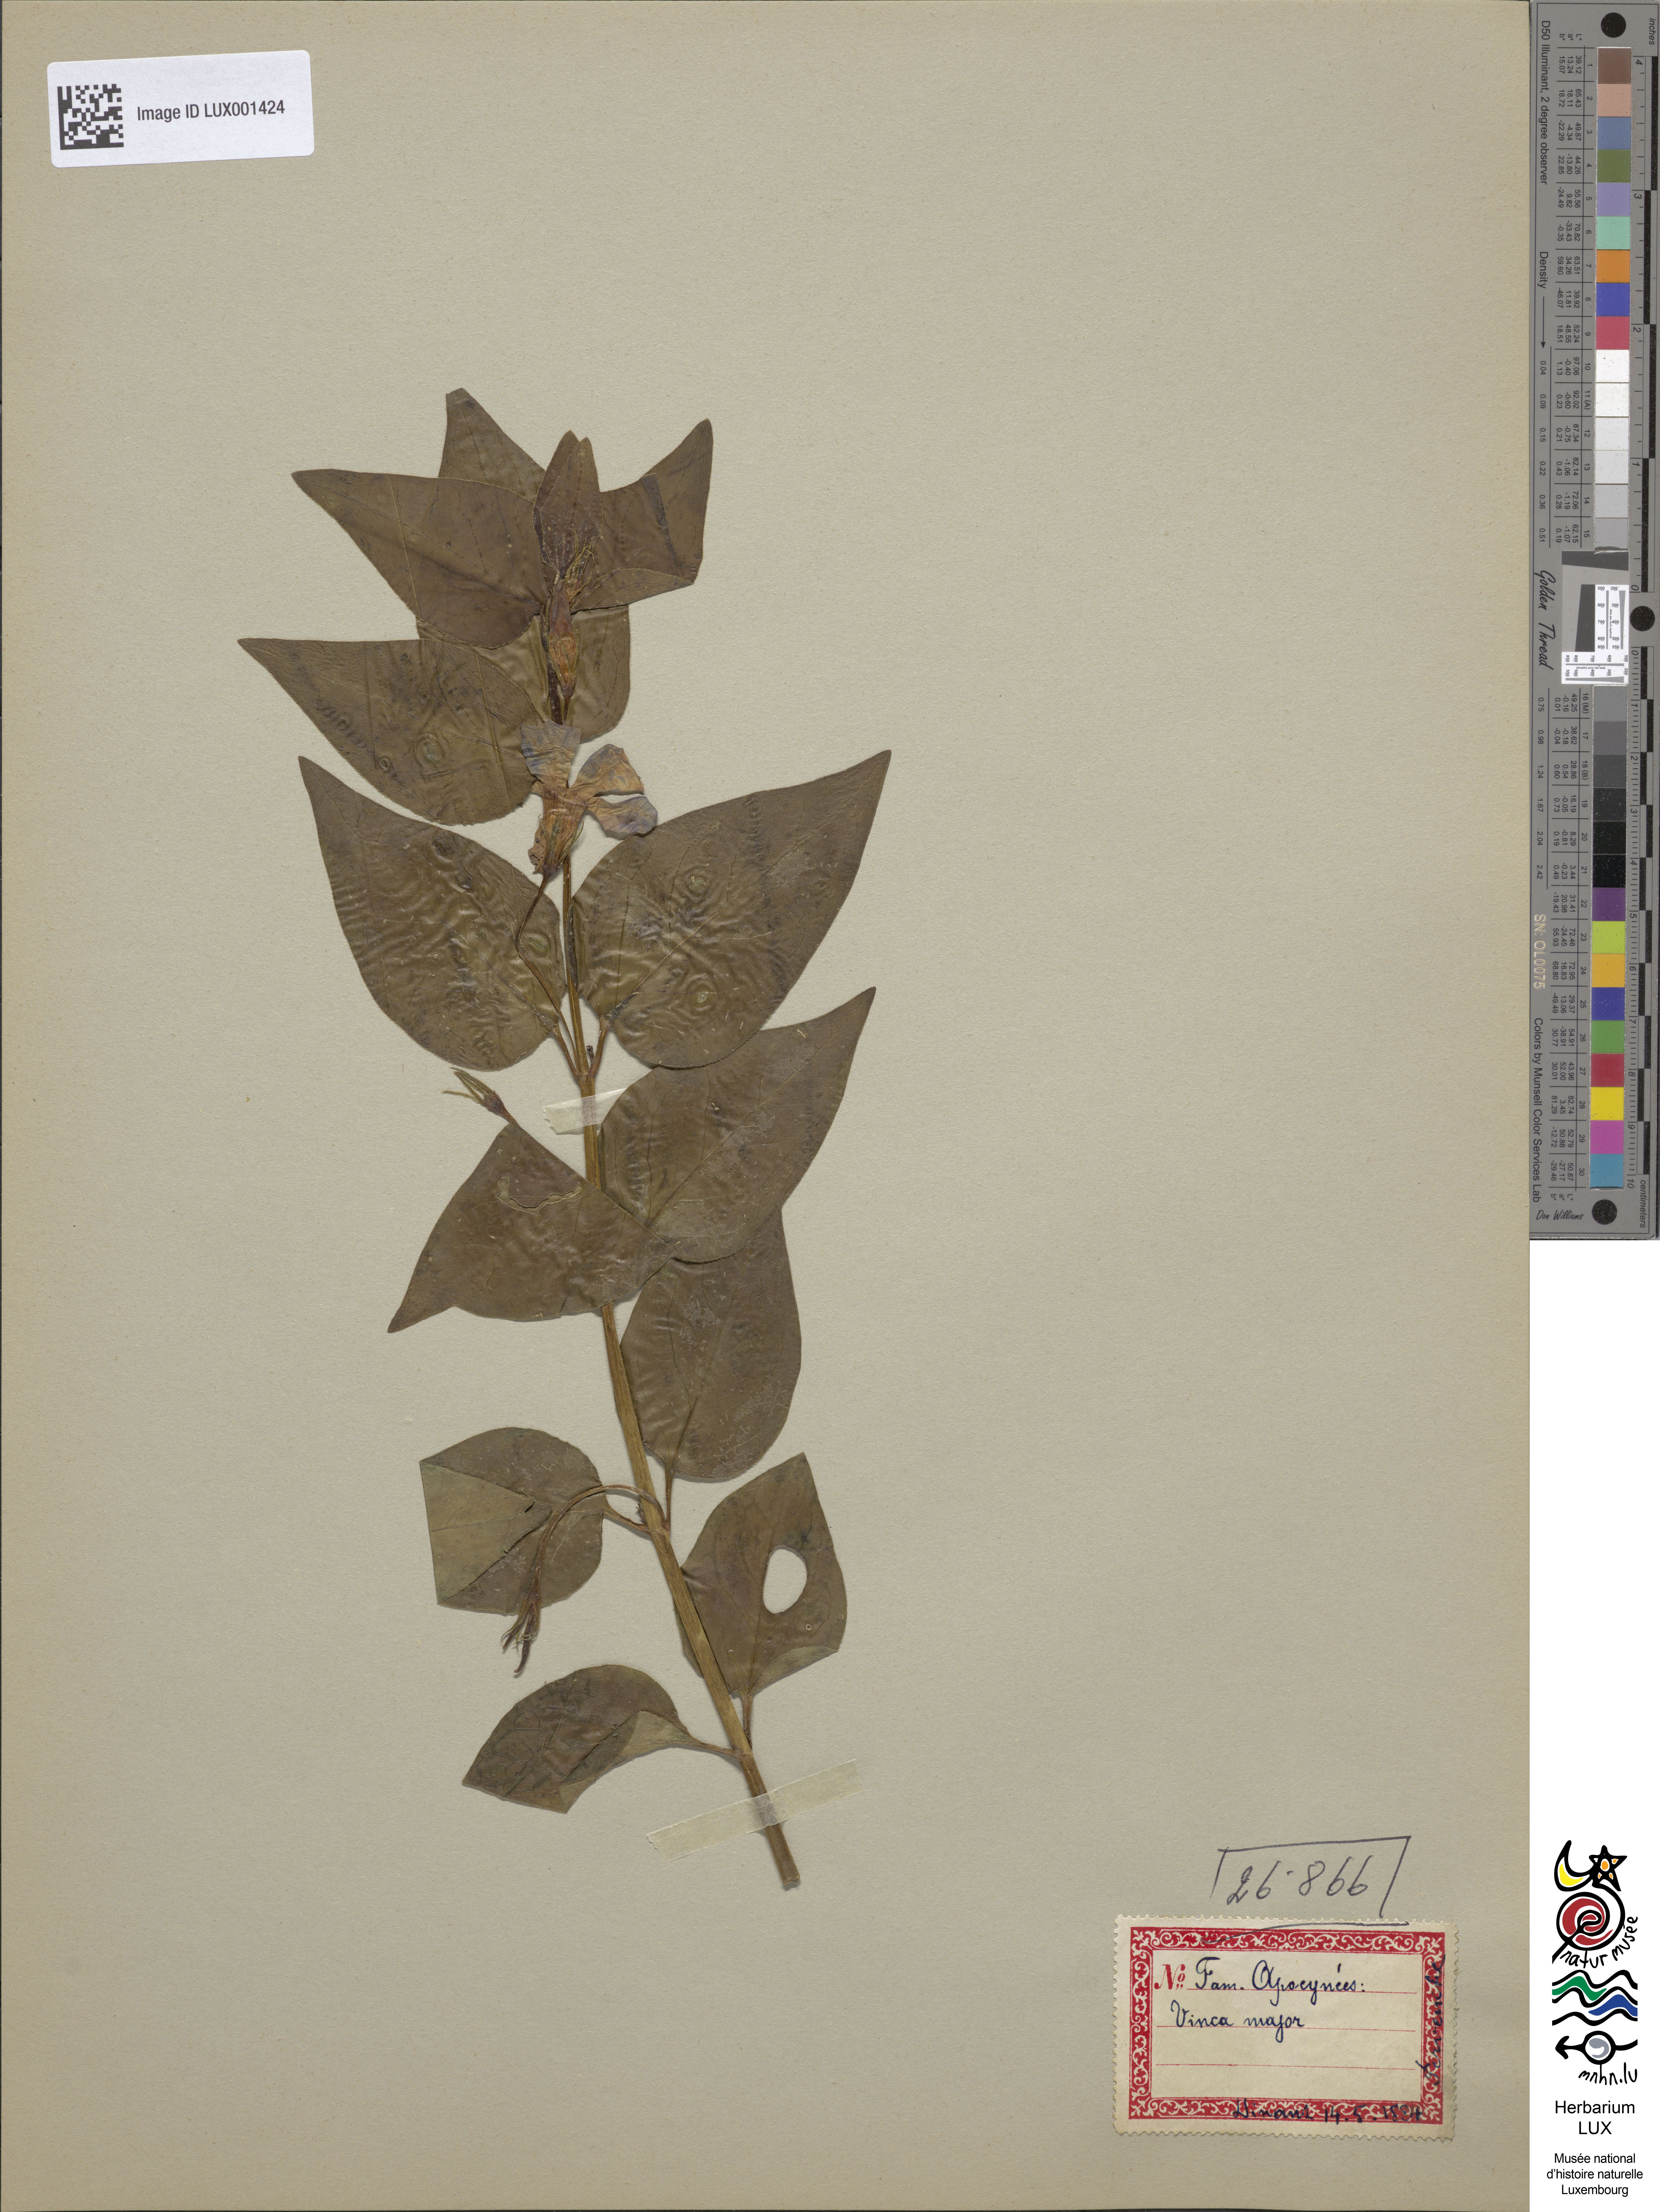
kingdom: Plantae
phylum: Tracheophyta
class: Magnoliopsida
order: Gentianales
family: Apocynaceae
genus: Vinca
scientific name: Vinca major
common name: Greater periwinkle
